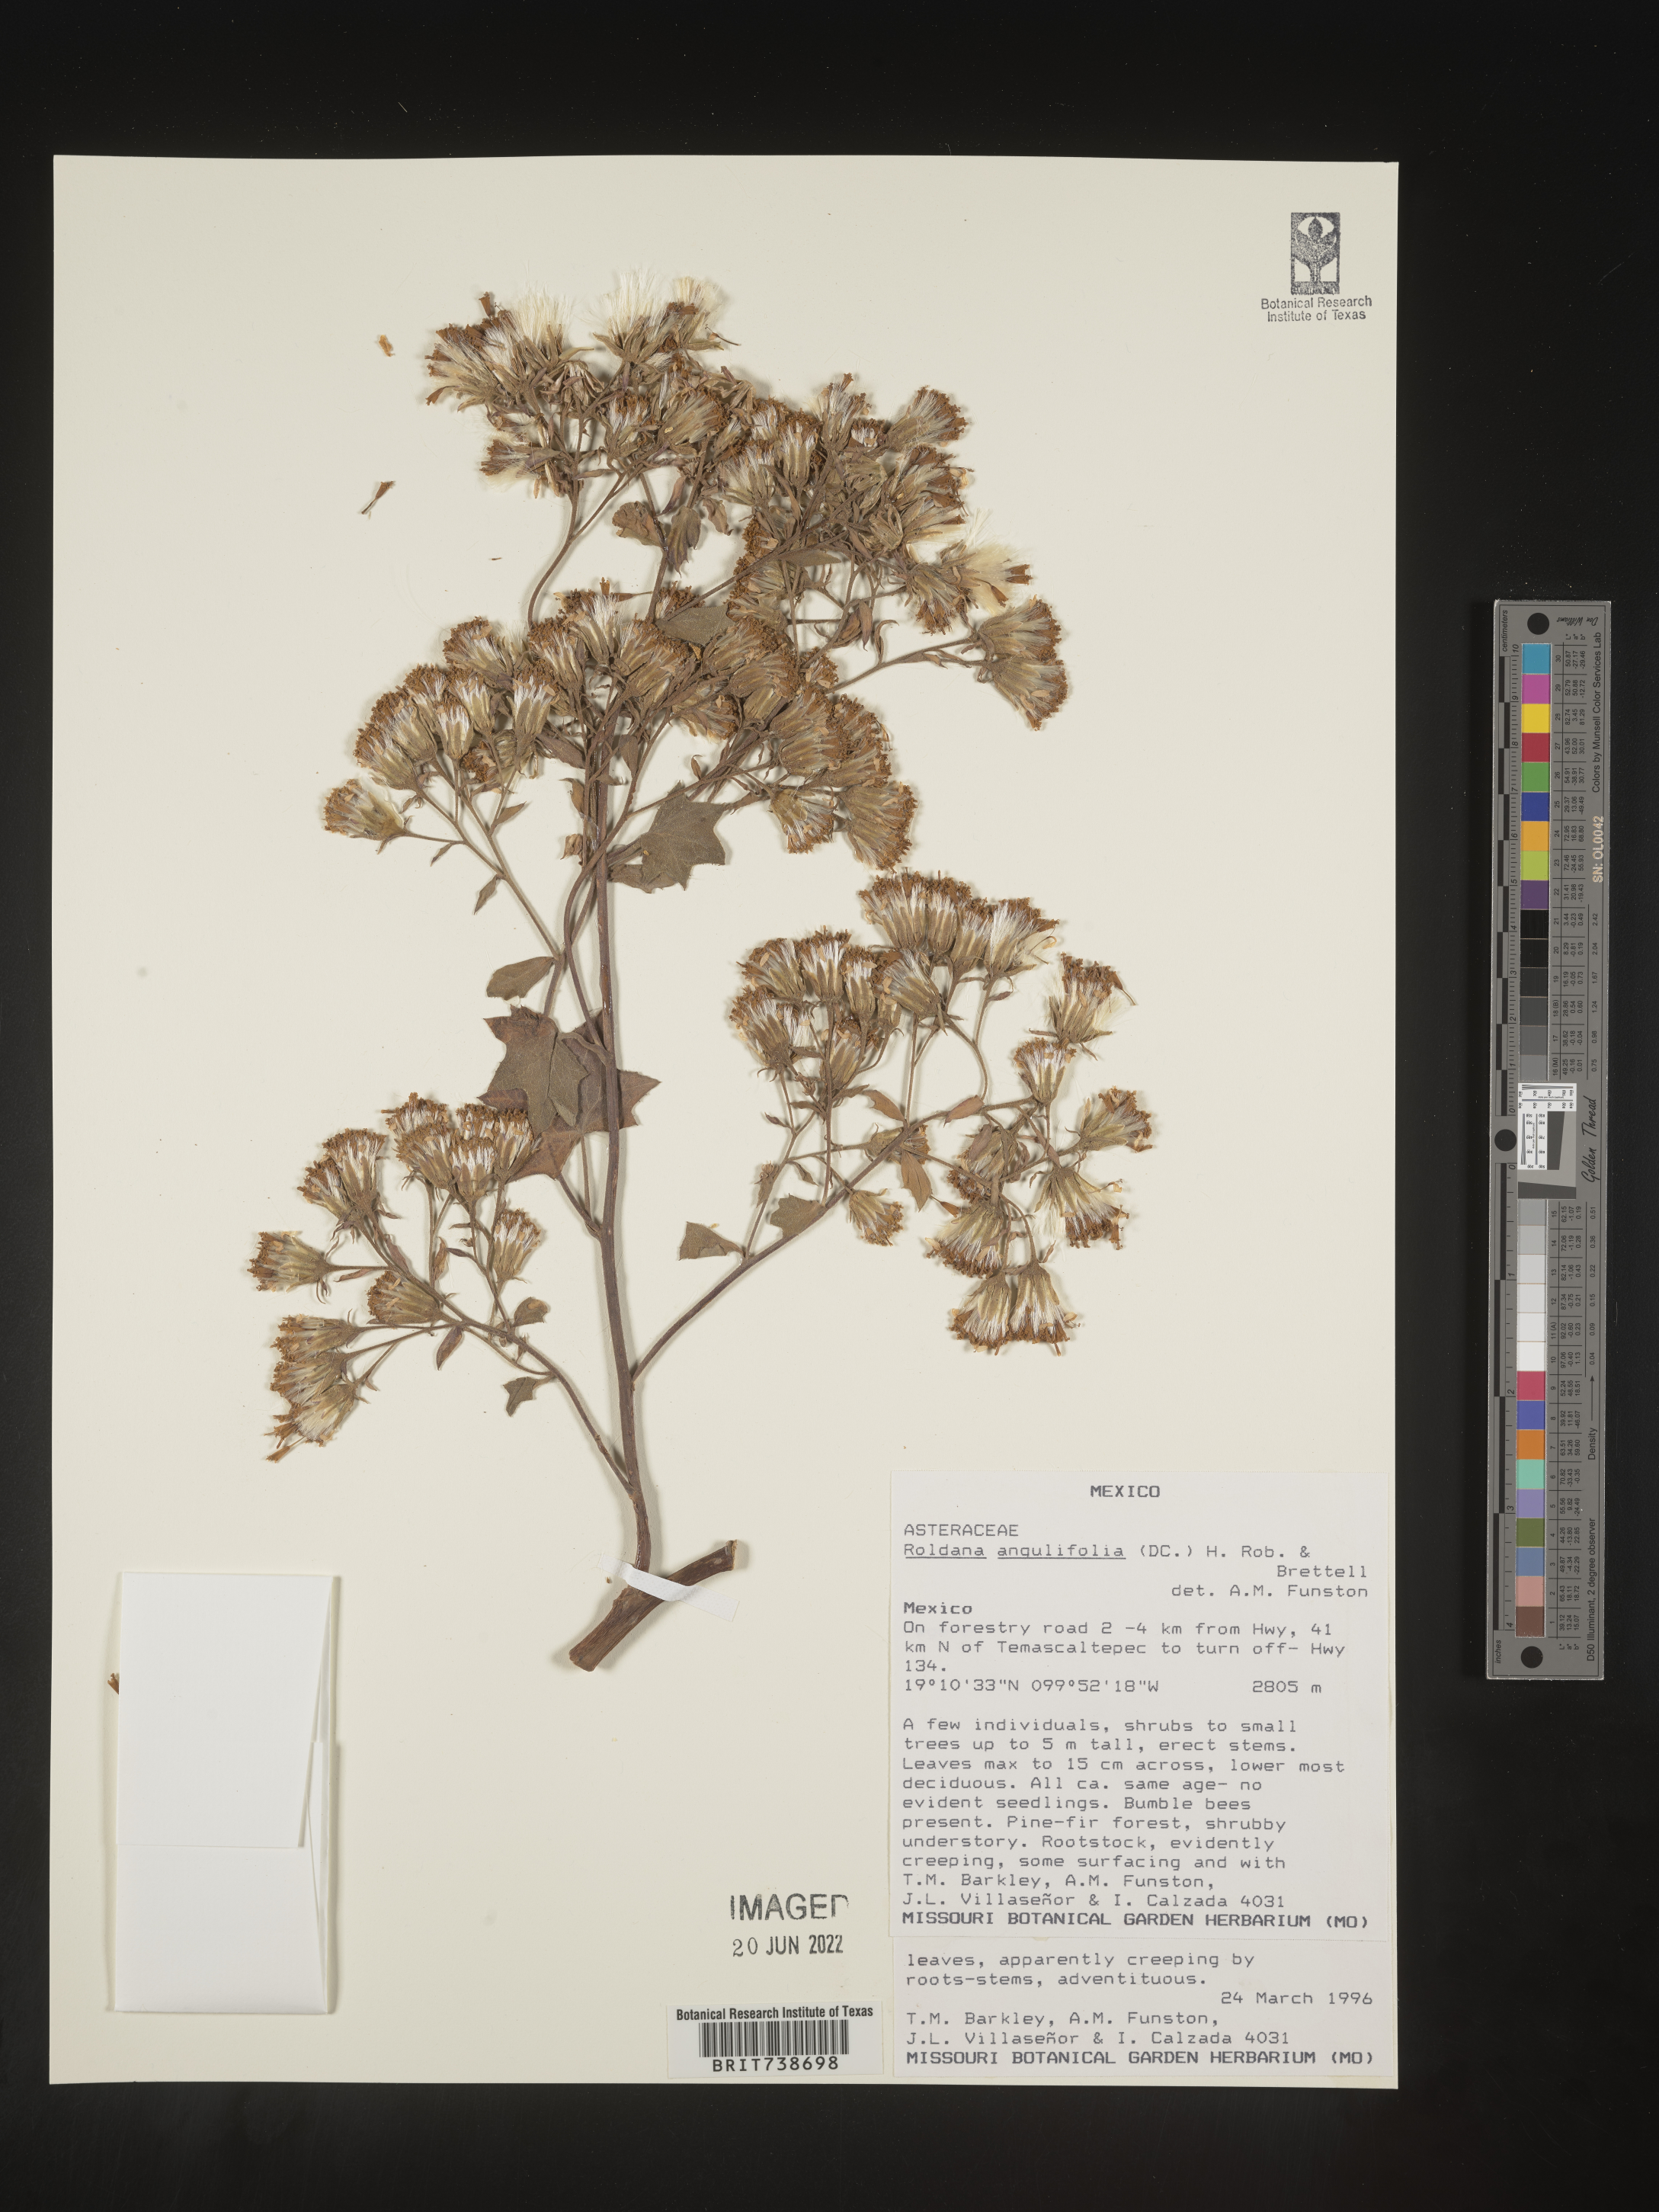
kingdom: Plantae
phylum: Tracheophyta
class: Magnoliopsida
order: Asterales
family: Asteraceae
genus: Roldana
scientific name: Roldana
